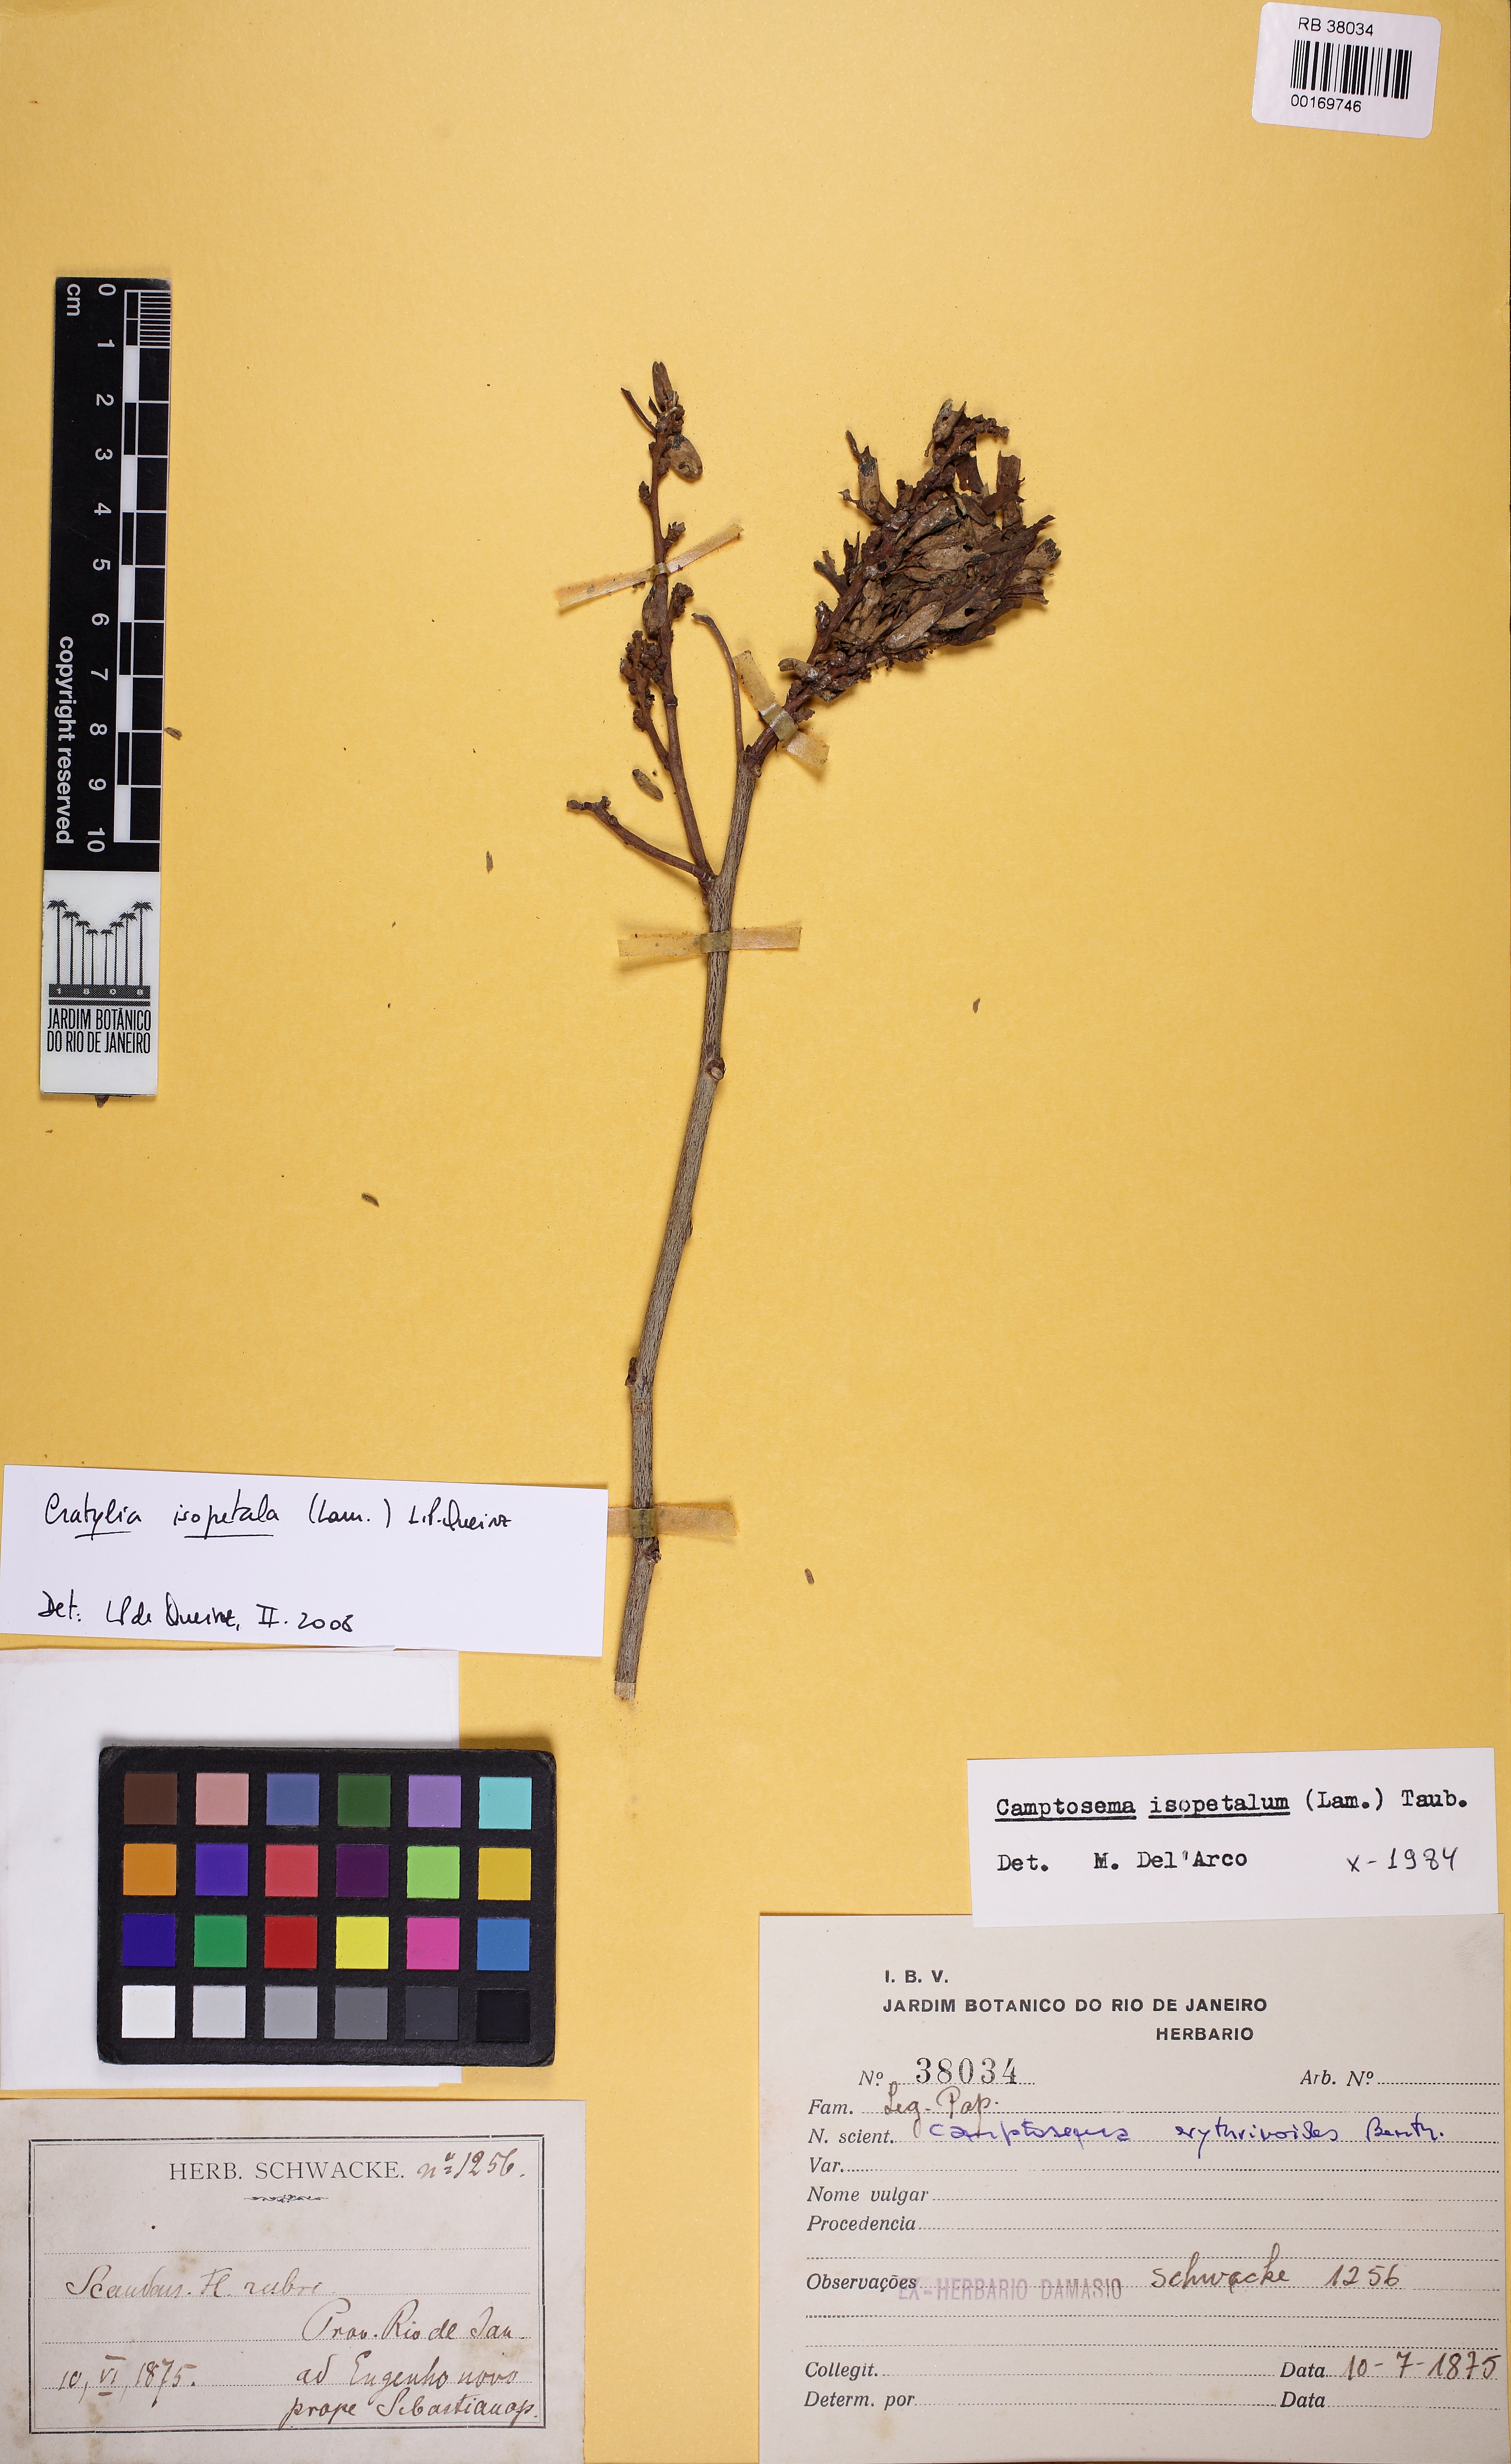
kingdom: Plantae
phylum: Tracheophyta
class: Magnoliopsida
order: Fabales
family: Fabaceae
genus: Cratylia
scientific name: Cratylia isopetala
